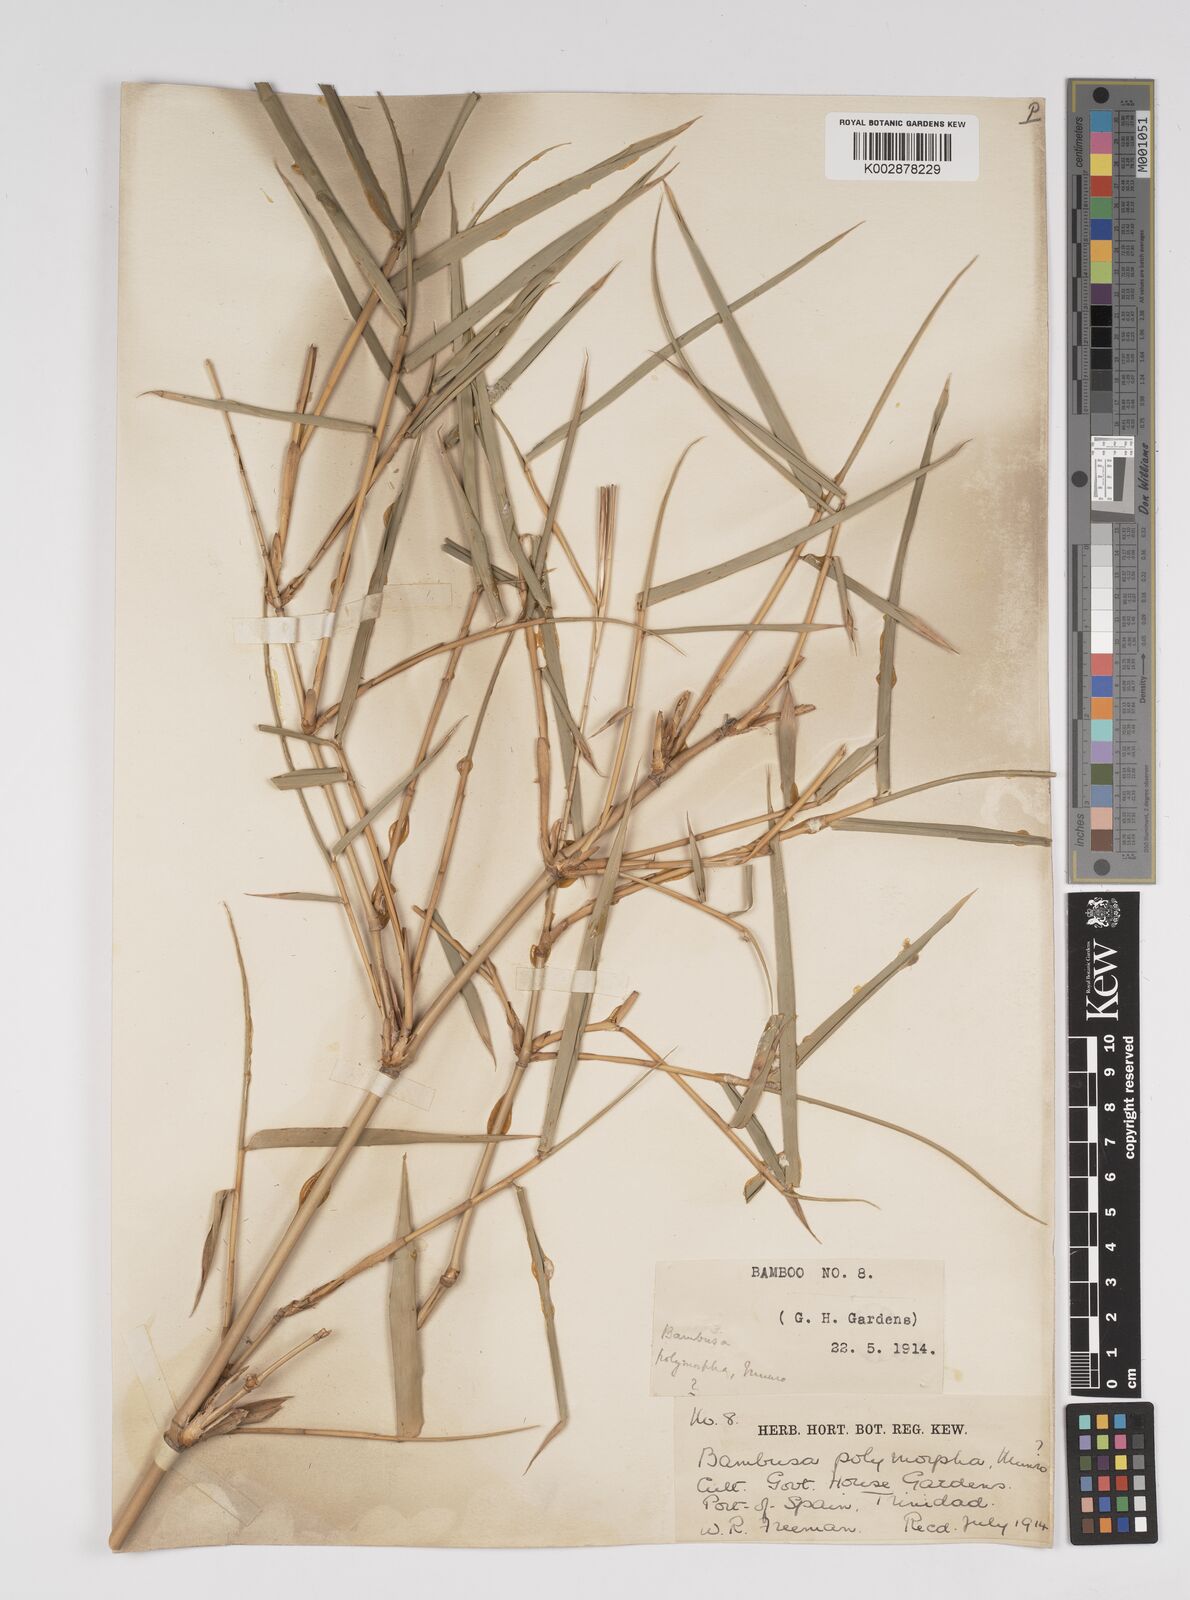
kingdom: Plantae
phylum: Tracheophyta
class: Liliopsida
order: Poales
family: Poaceae
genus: Bambusa
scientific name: Bambusa polymorpha
